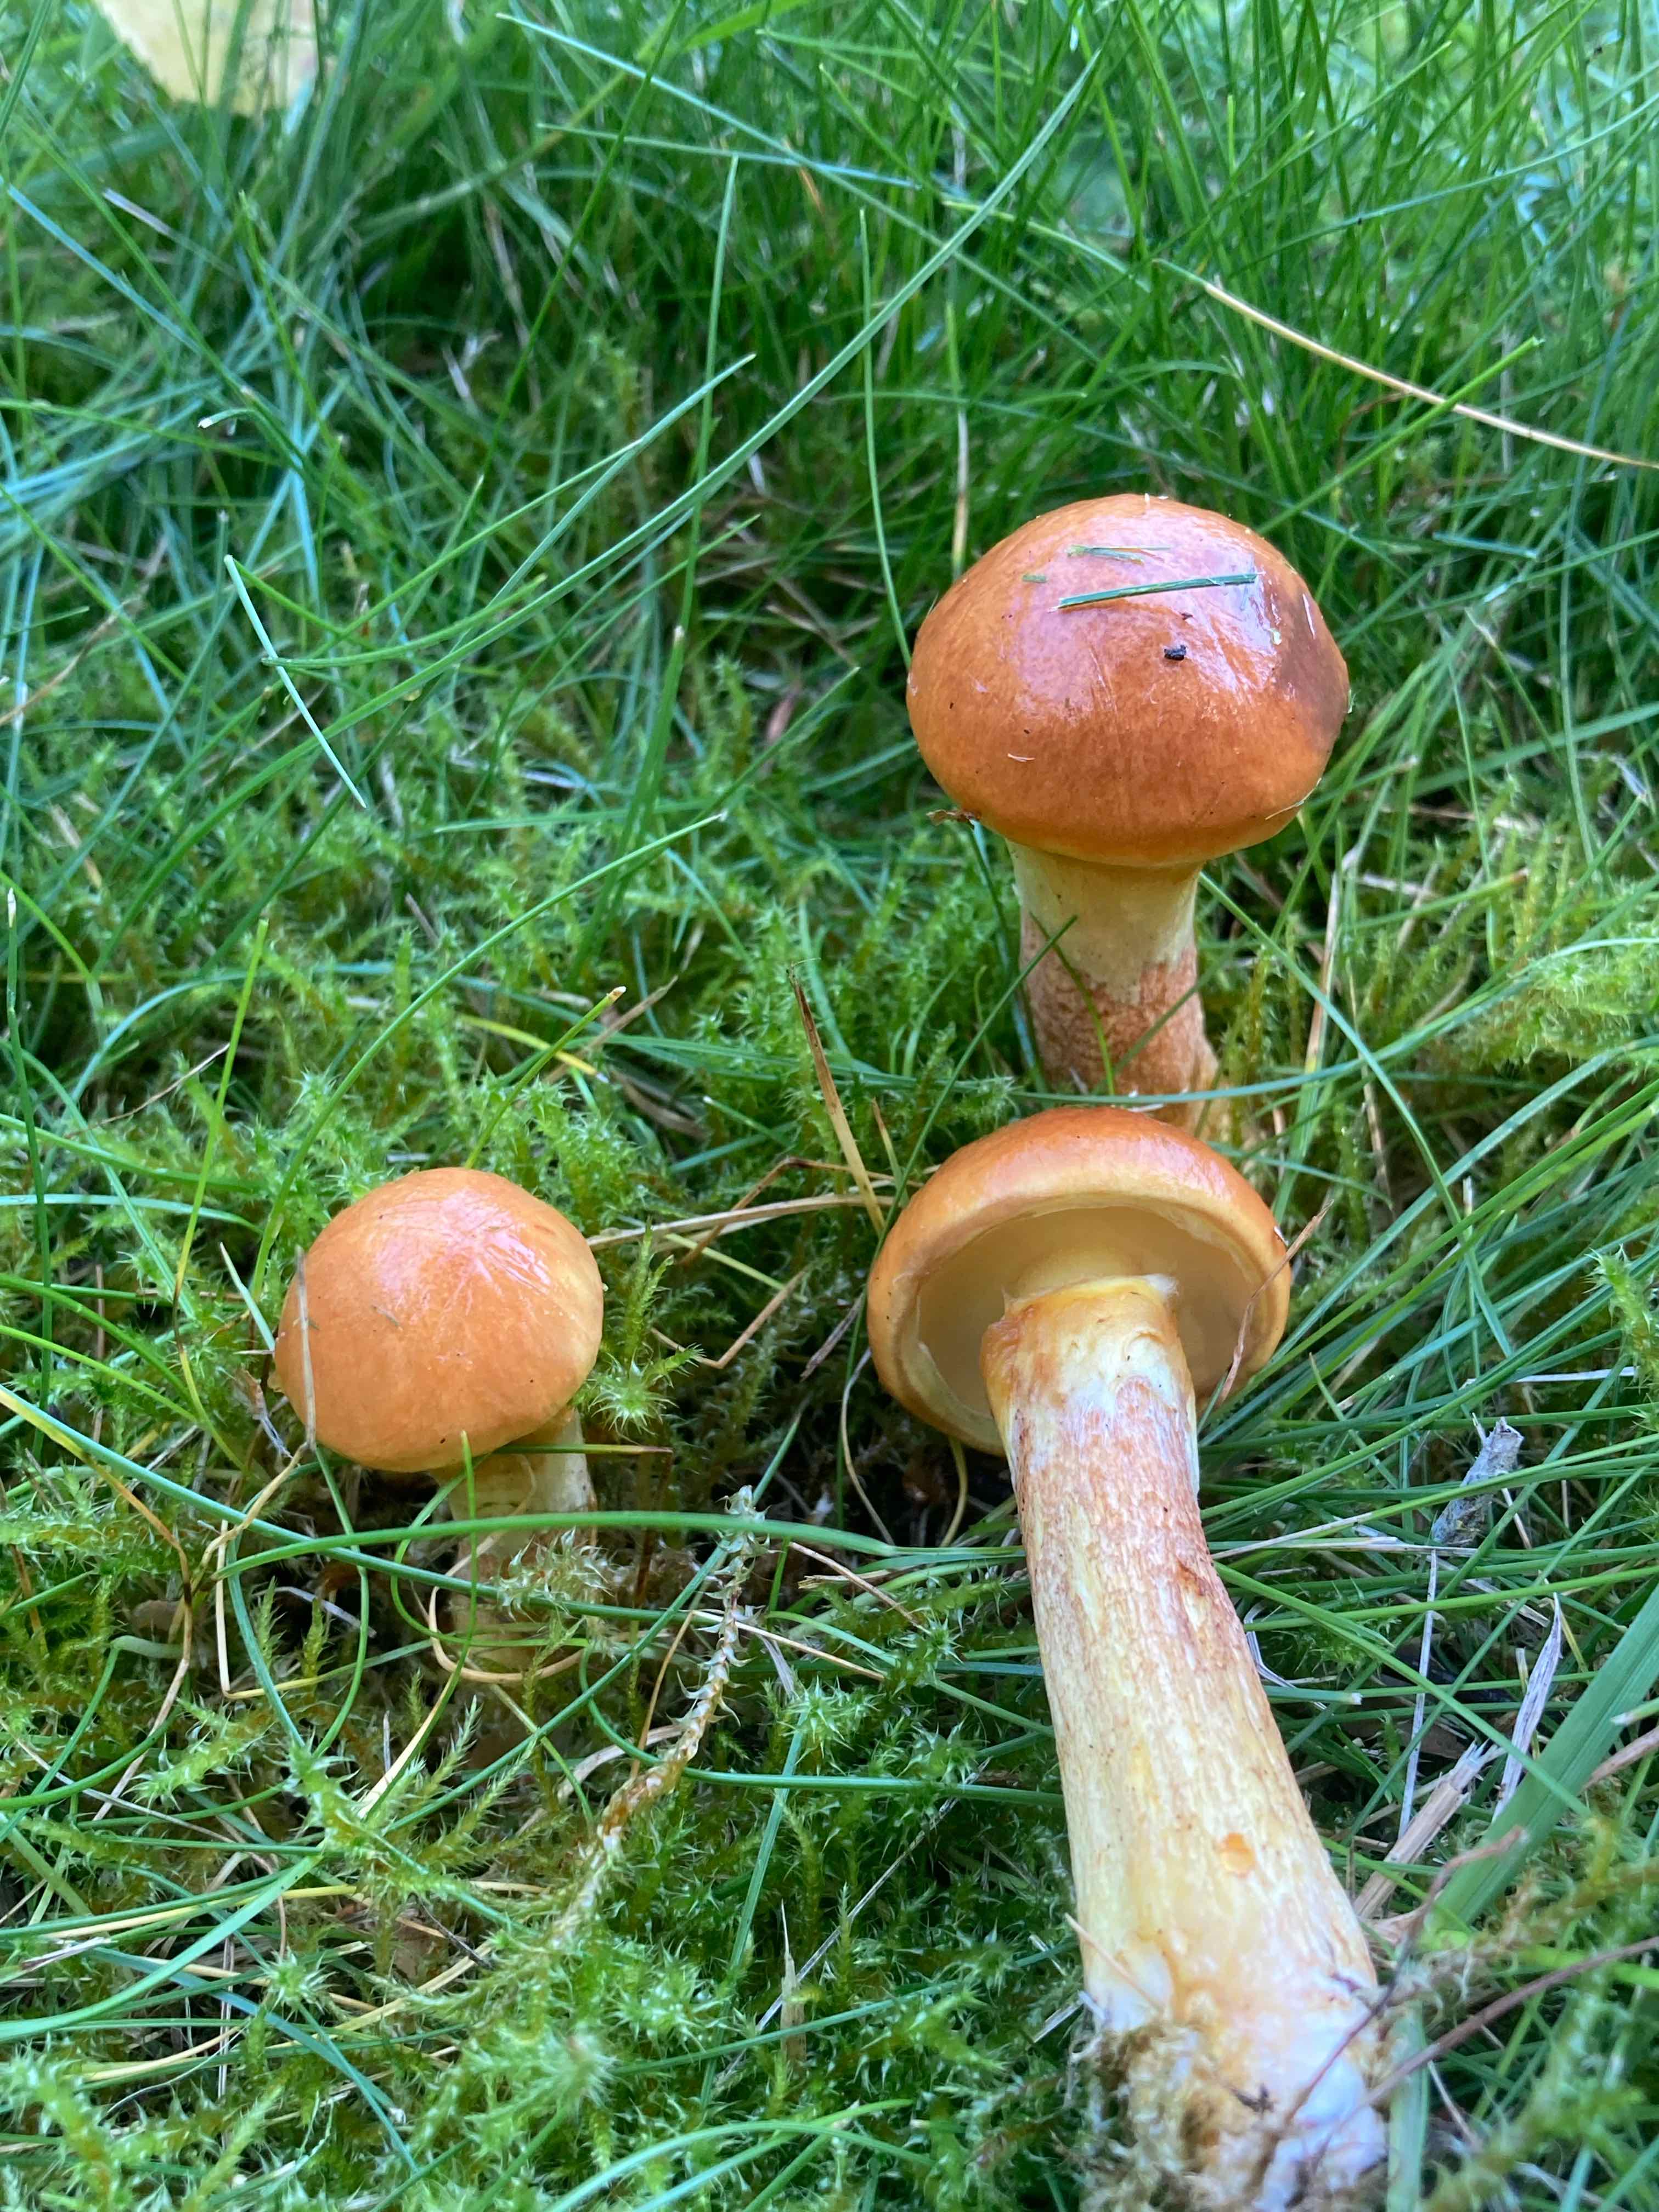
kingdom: Fungi
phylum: Basidiomycota
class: Agaricomycetes
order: Boletales
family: Suillaceae
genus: Suillus
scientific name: Suillus grevillei
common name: lærke-slimrørhat
